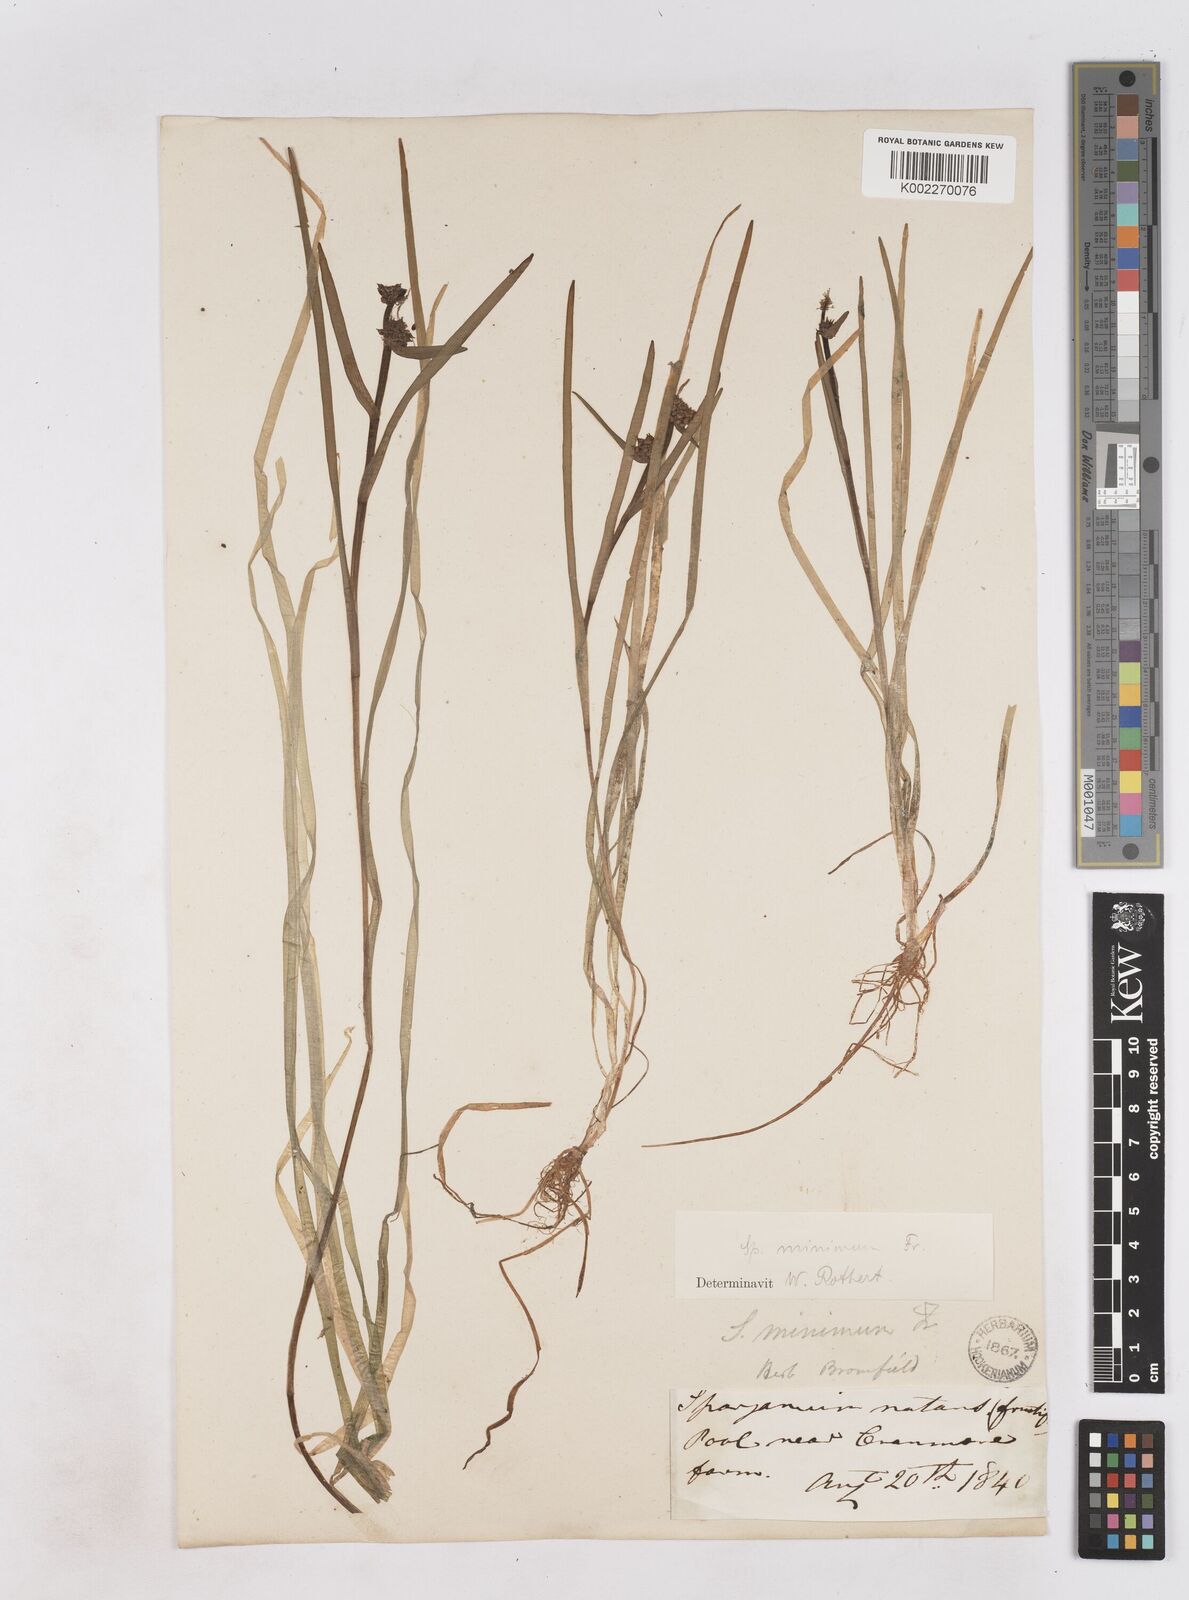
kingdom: Plantae
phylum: Tracheophyta
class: Liliopsida
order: Poales
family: Typhaceae
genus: Sparganium
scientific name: Sparganium natans
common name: Least bur-reed
